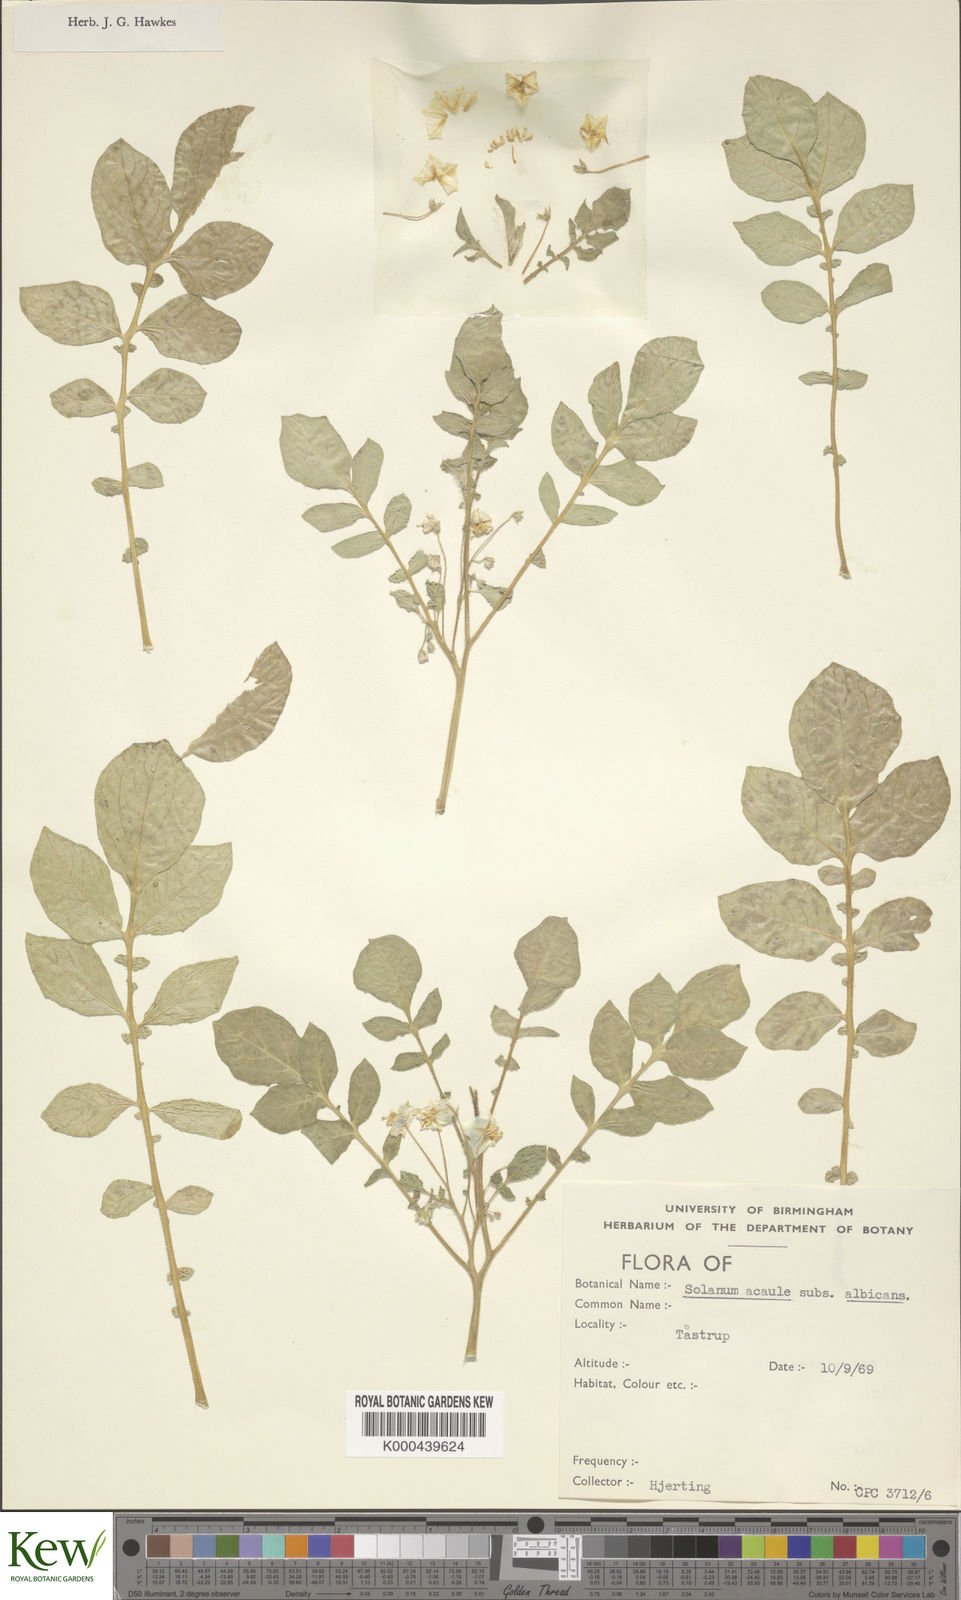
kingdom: Plantae
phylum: Tracheophyta
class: Magnoliopsida
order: Solanales
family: Solanaceae
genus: Solanum
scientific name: Solanum albicans
